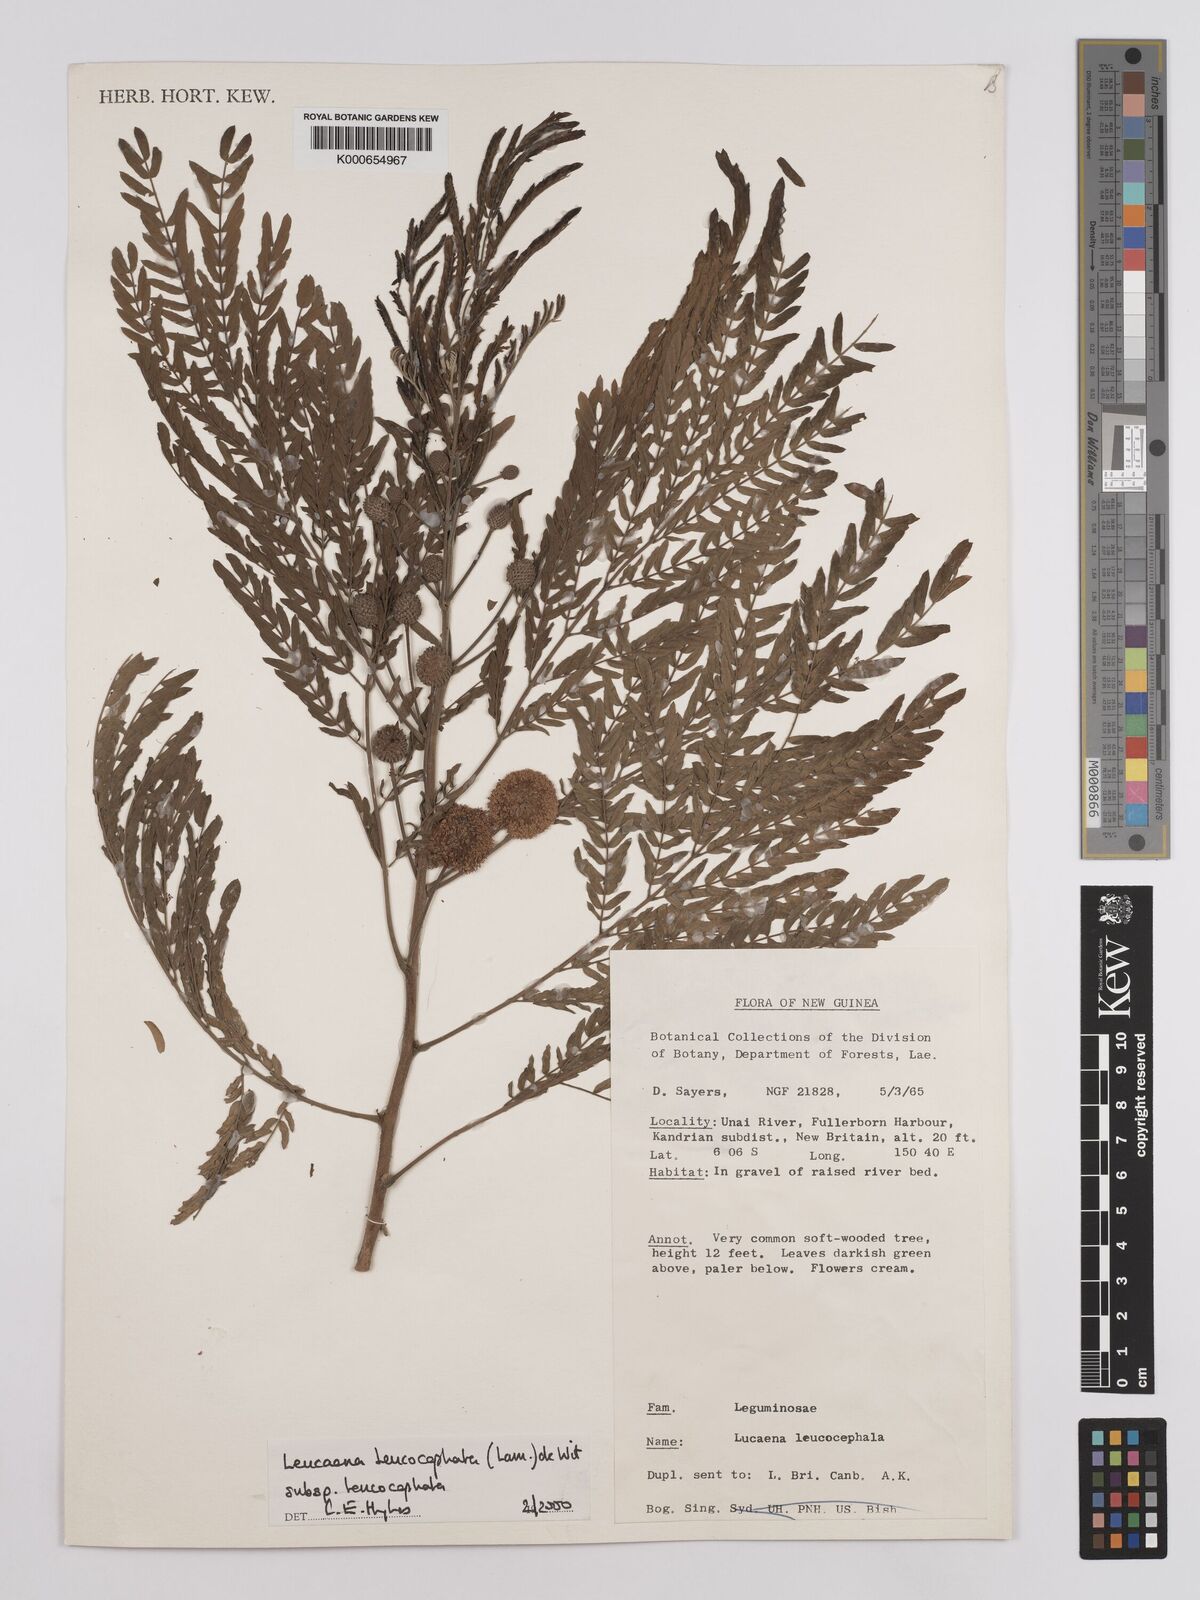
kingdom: Plantae
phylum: Tracheophyta
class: Magnoliopsida
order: Fabales
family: Fabaceae
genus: Leucaena
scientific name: Leucaena leucocephala
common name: White leadtree
